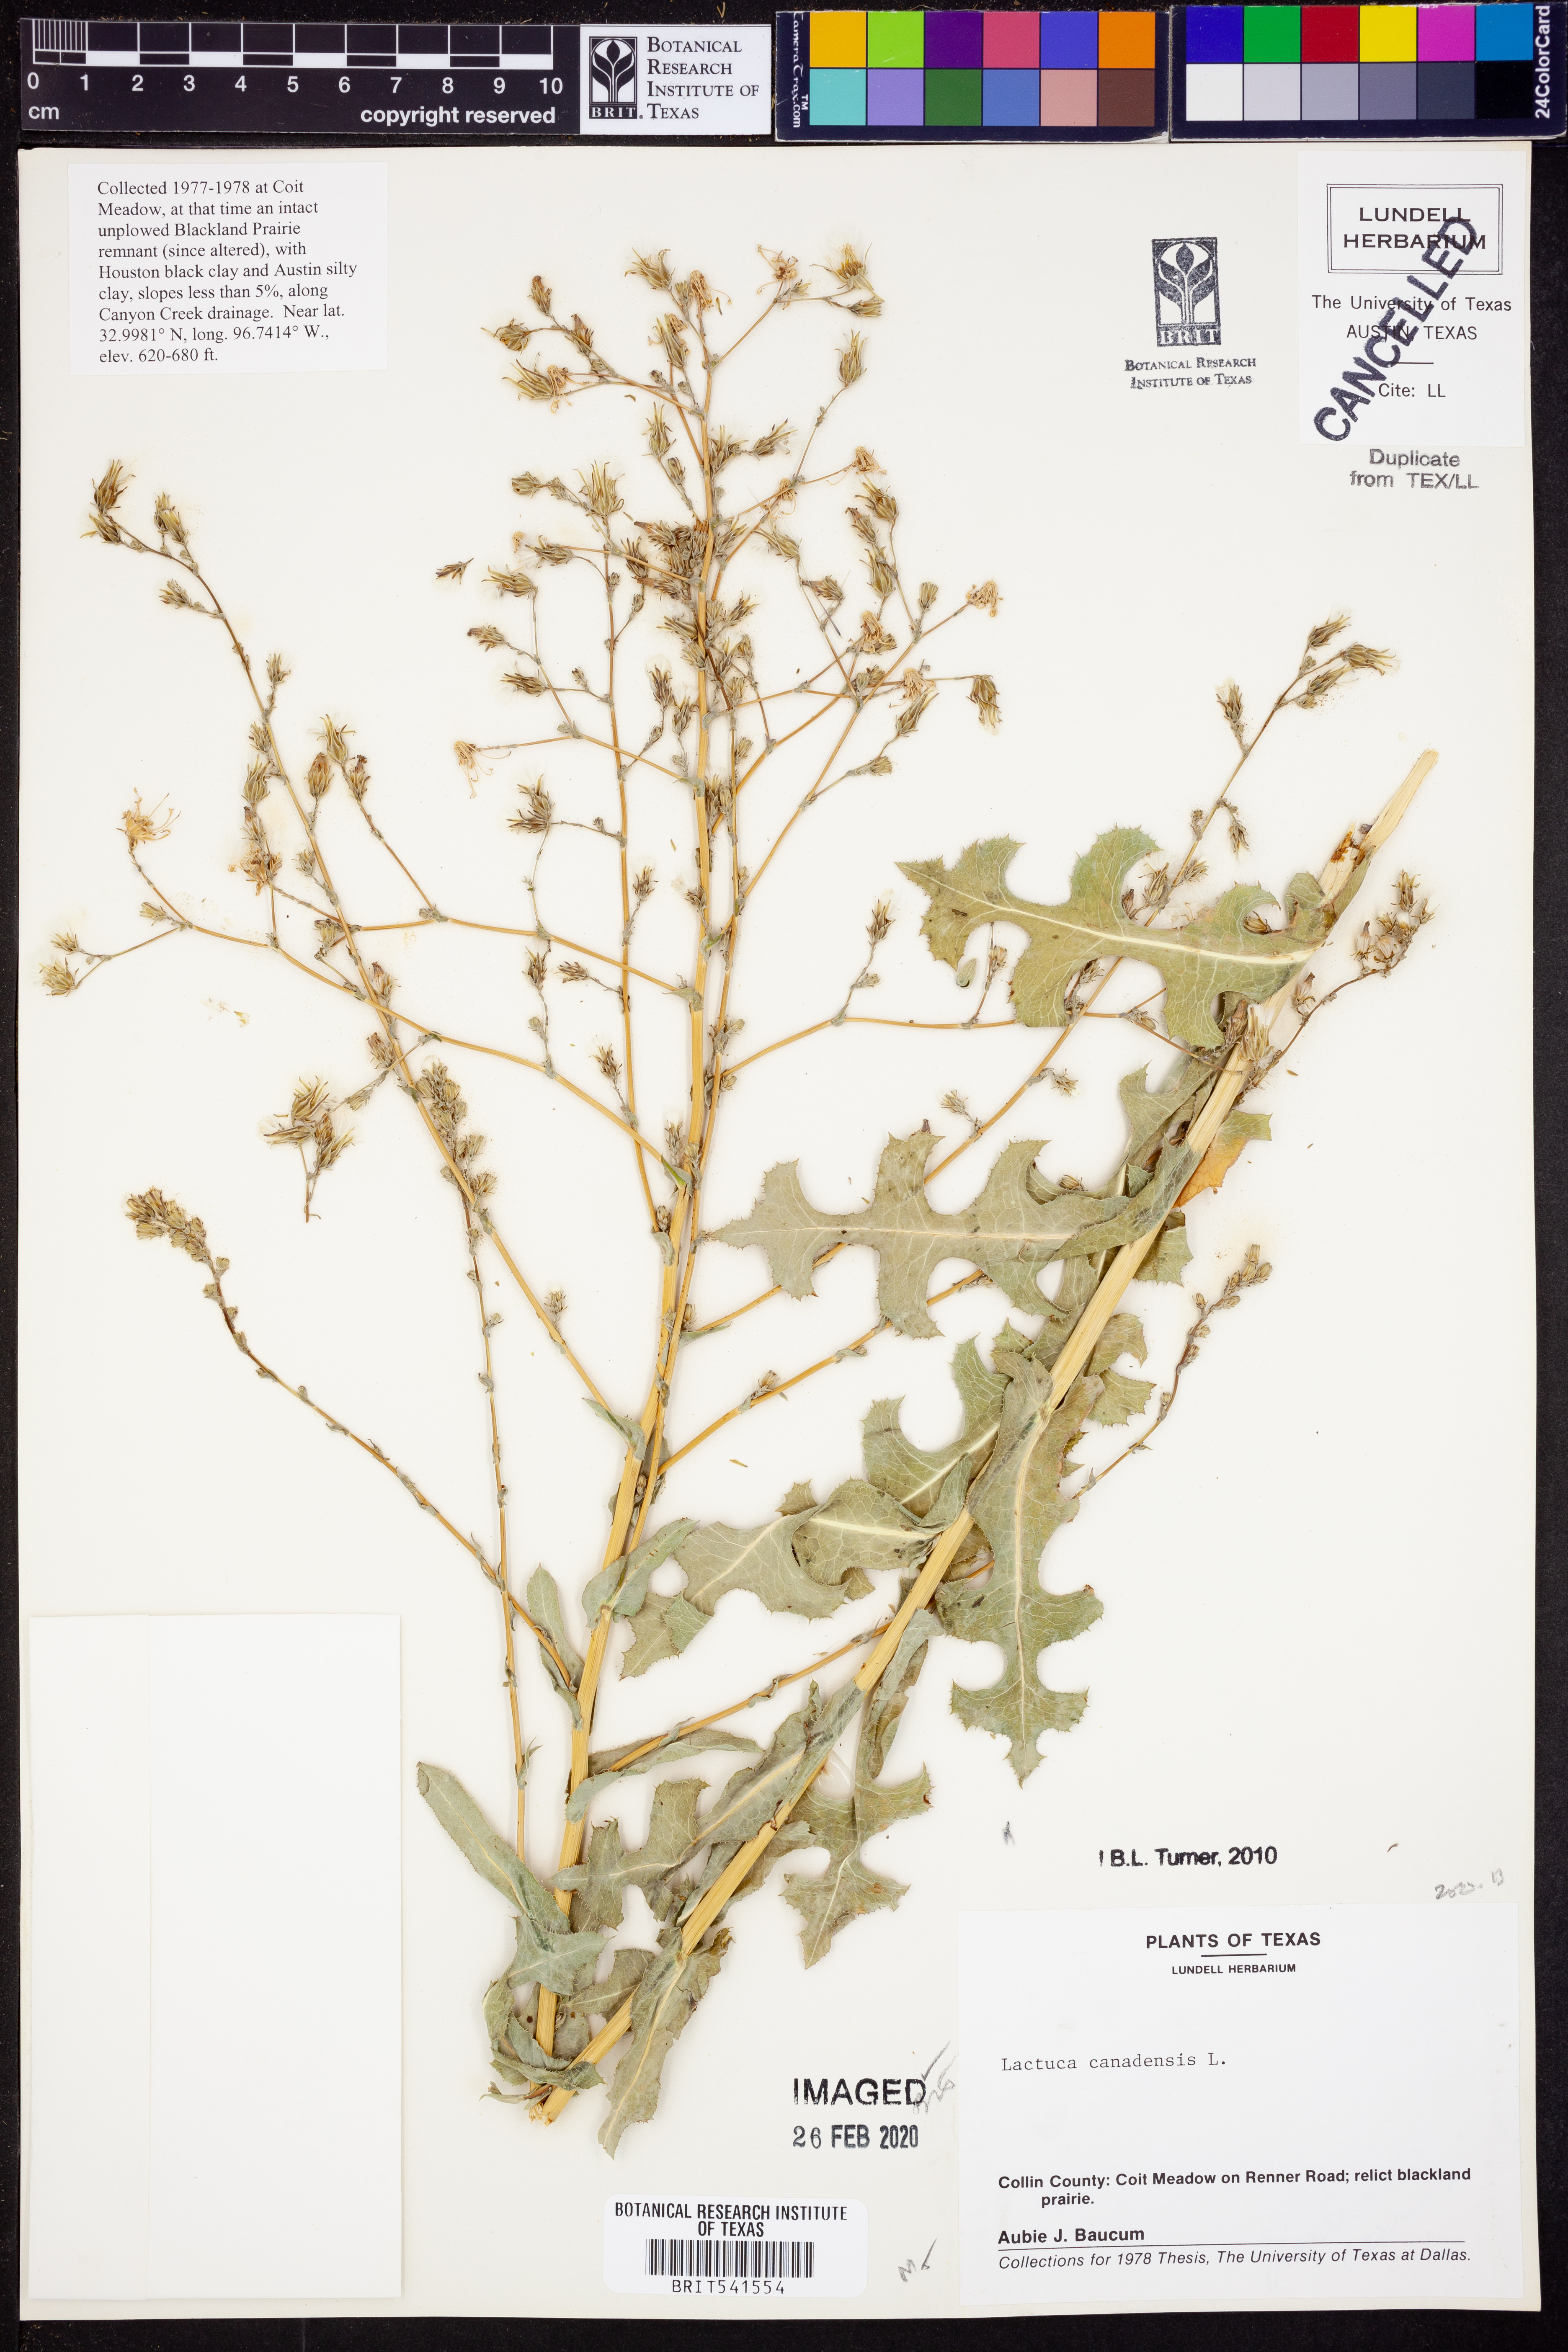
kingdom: Plantae
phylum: Tracheophyta
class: Magnoliopsida
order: Asterales
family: Asteraceae
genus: Lactuca
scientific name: Lactuca canadensis
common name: Canada lettuce
